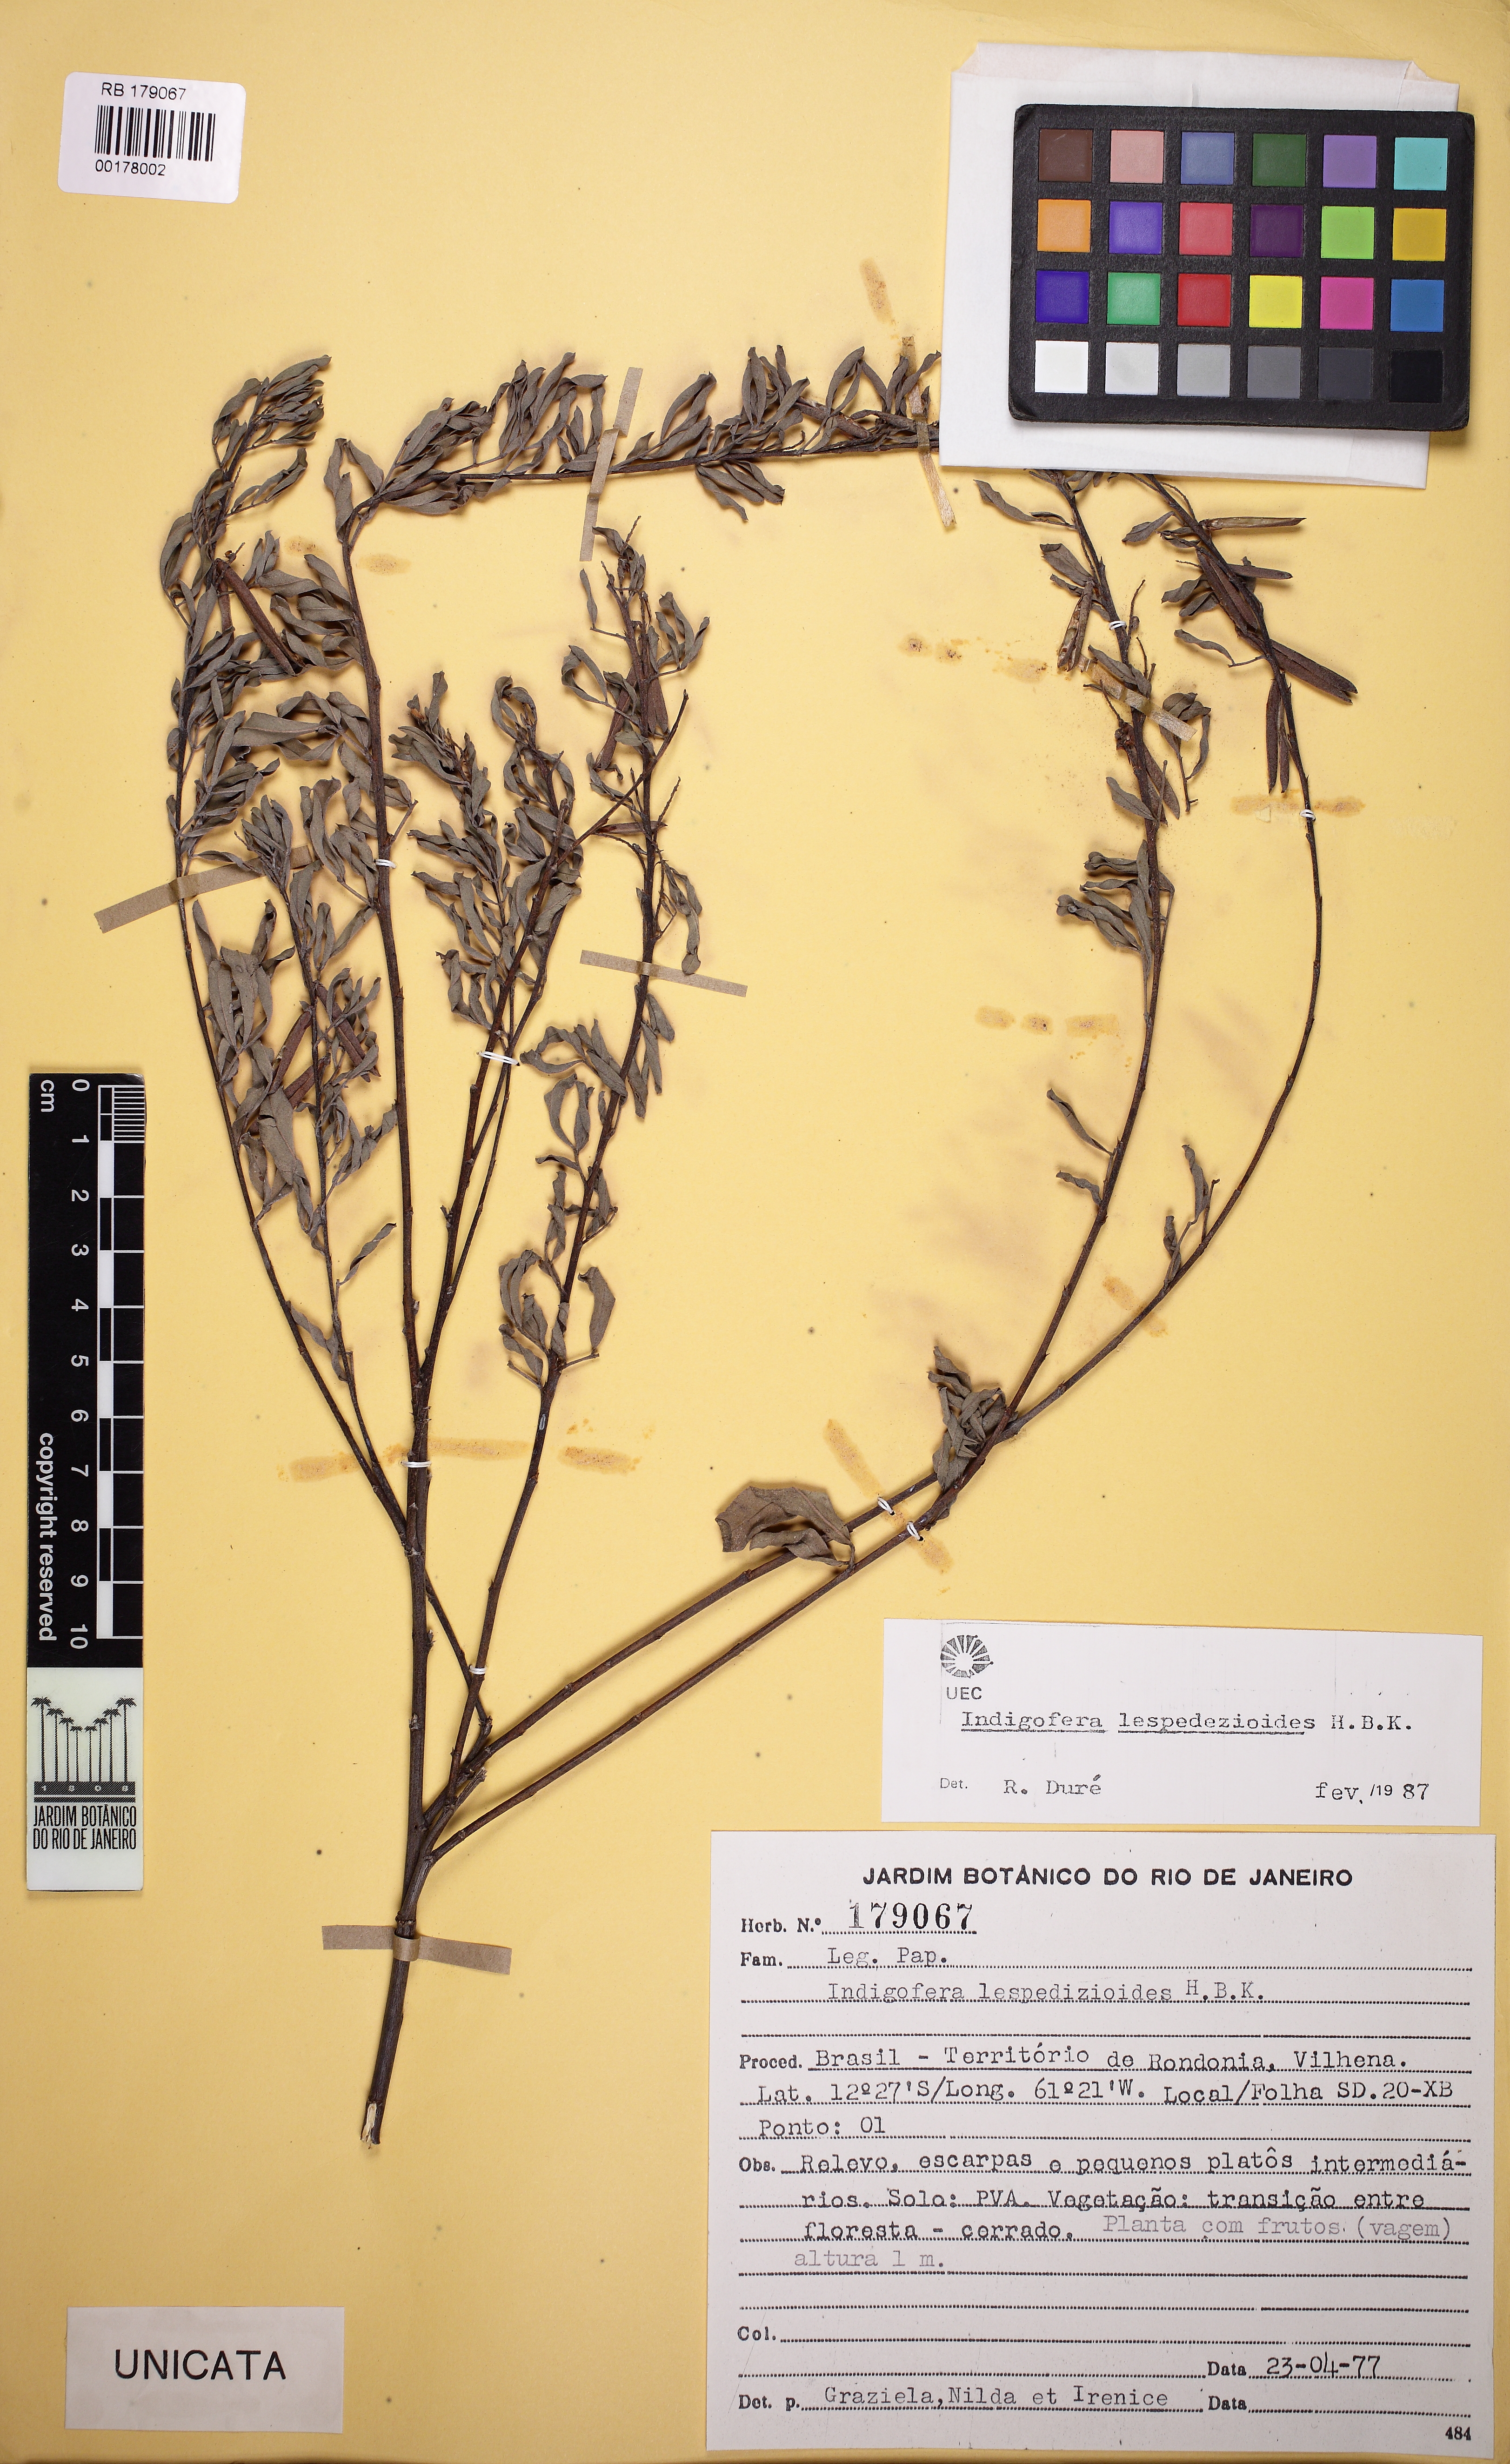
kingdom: Plantae
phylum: Tracheophyta
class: Magnoliopsida
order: Fabales
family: Fabaceae
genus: Indigofera
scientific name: Indigofera lespedezioides
